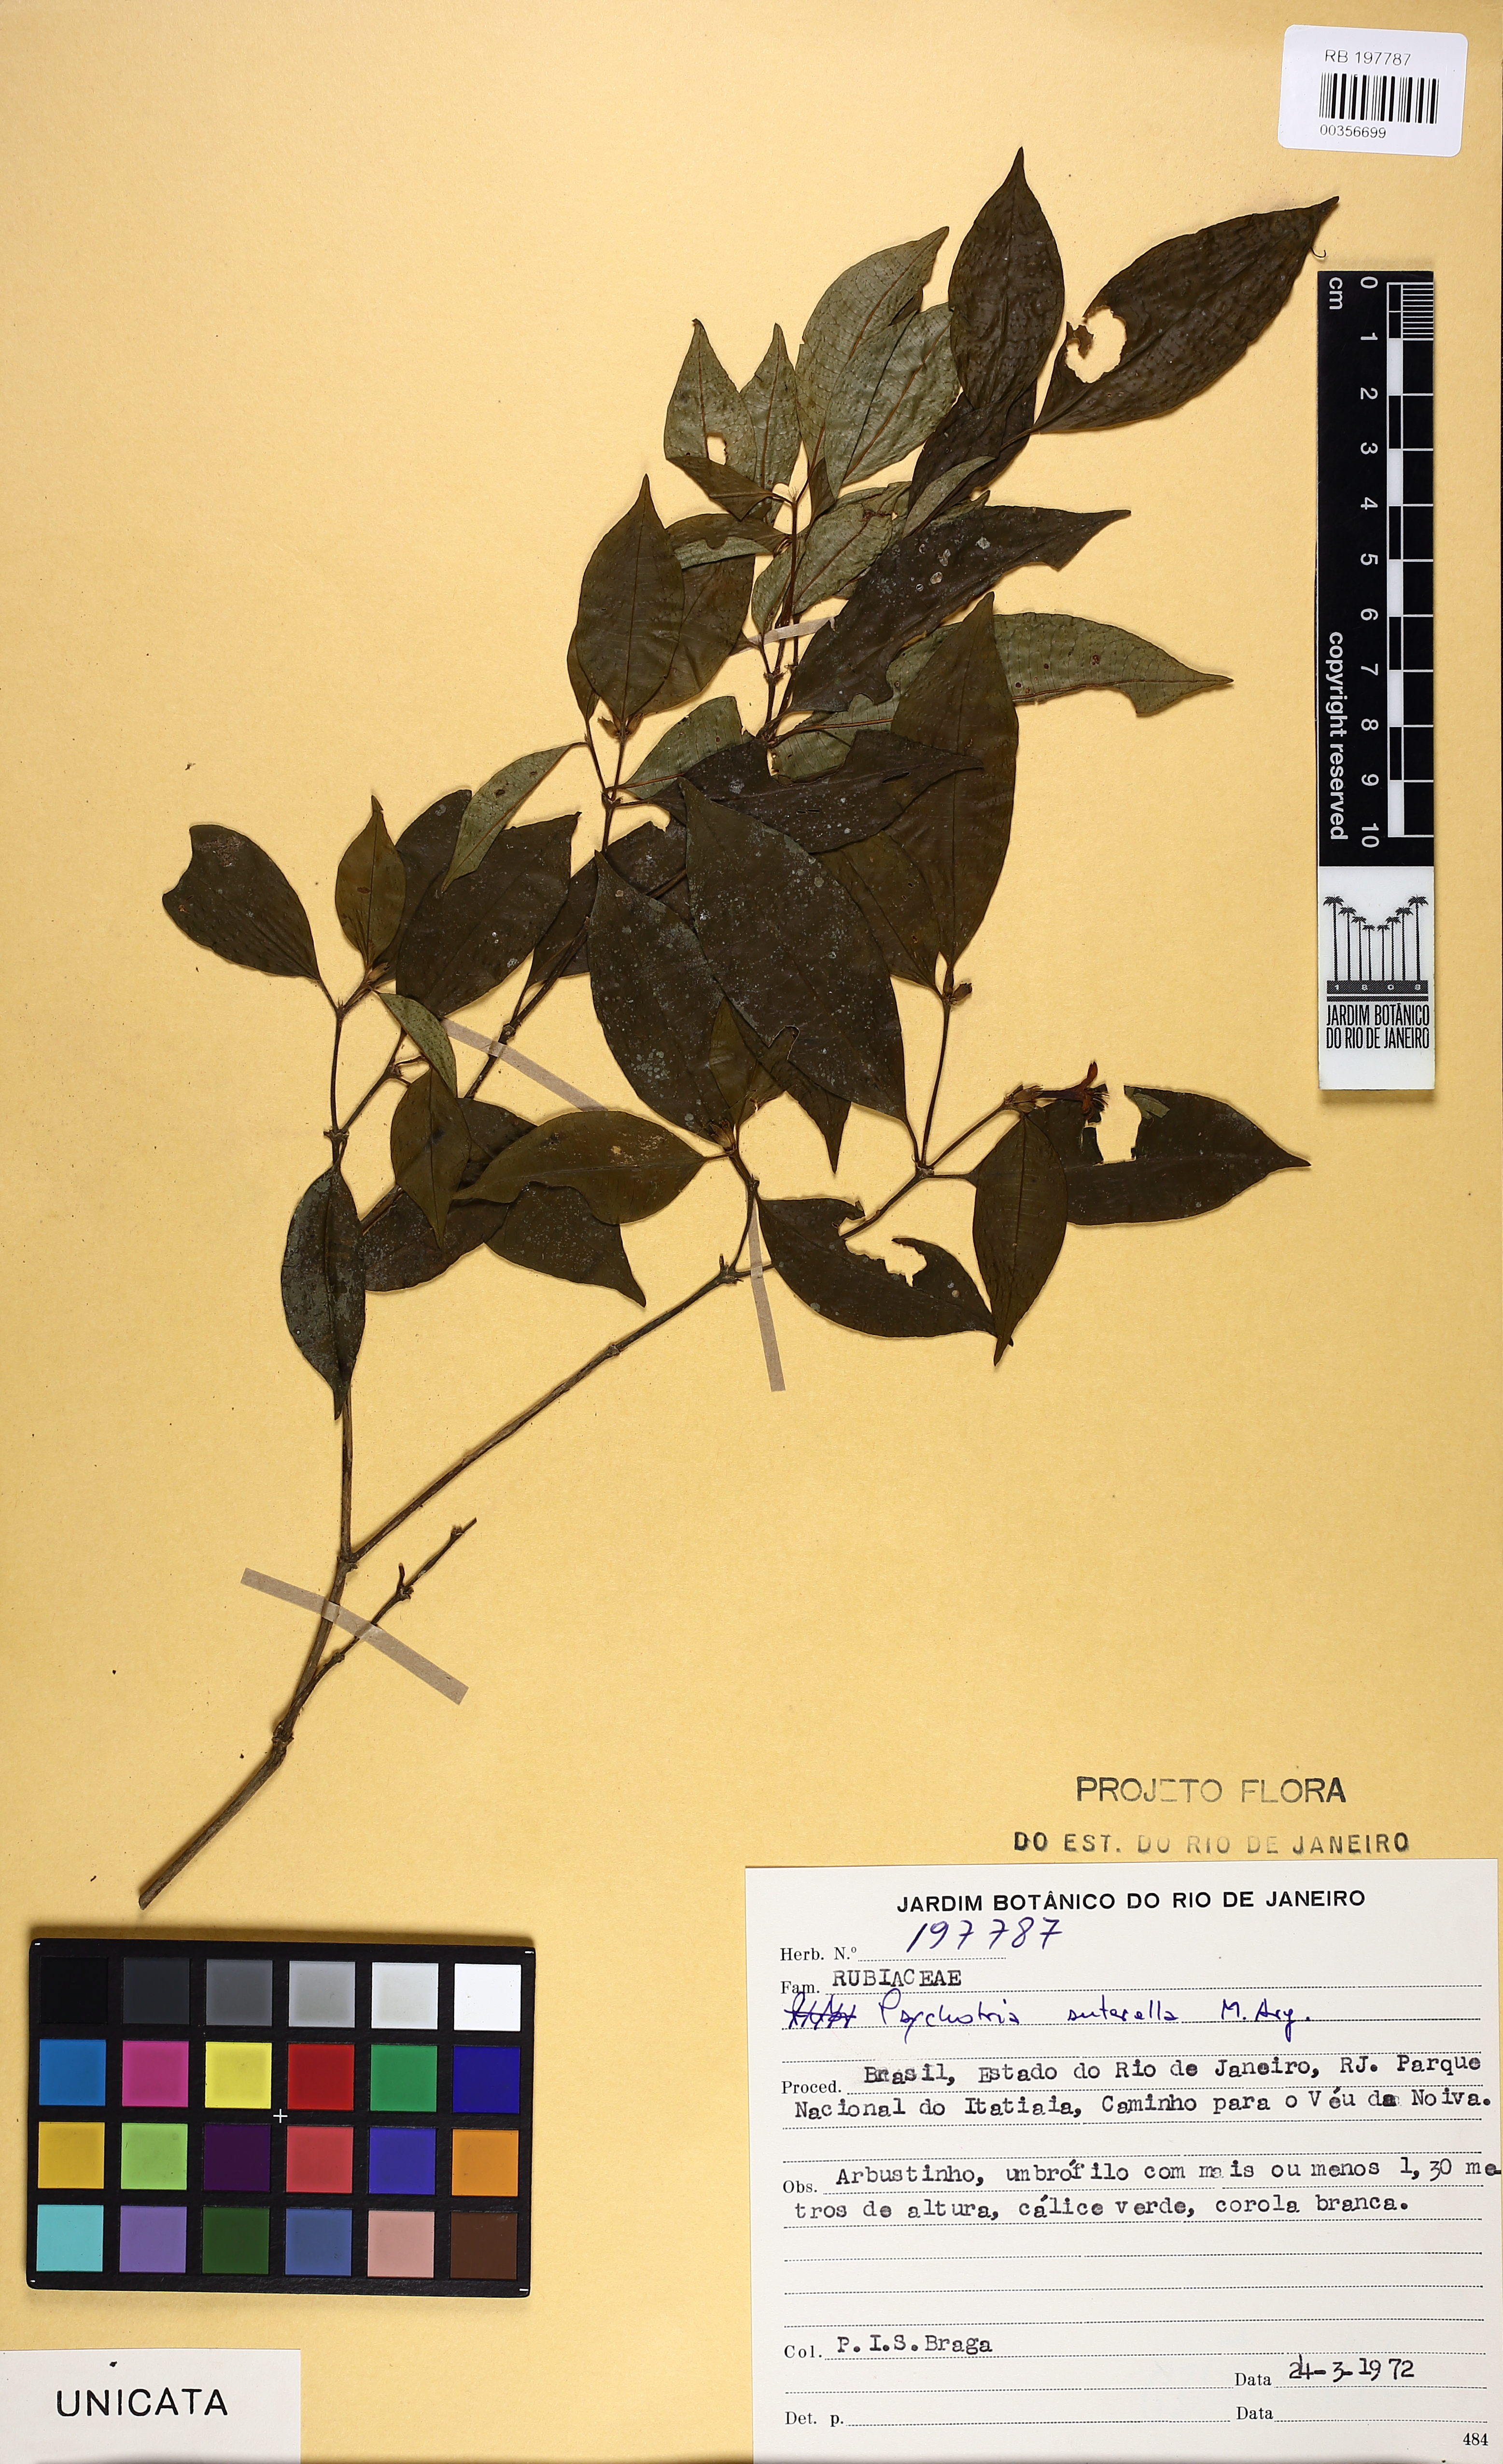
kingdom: Plantae
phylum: Tracheophyta
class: Magnoliopsida
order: Gentianales
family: Rubiaceae
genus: Psychotria
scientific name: Psychotria suterella
